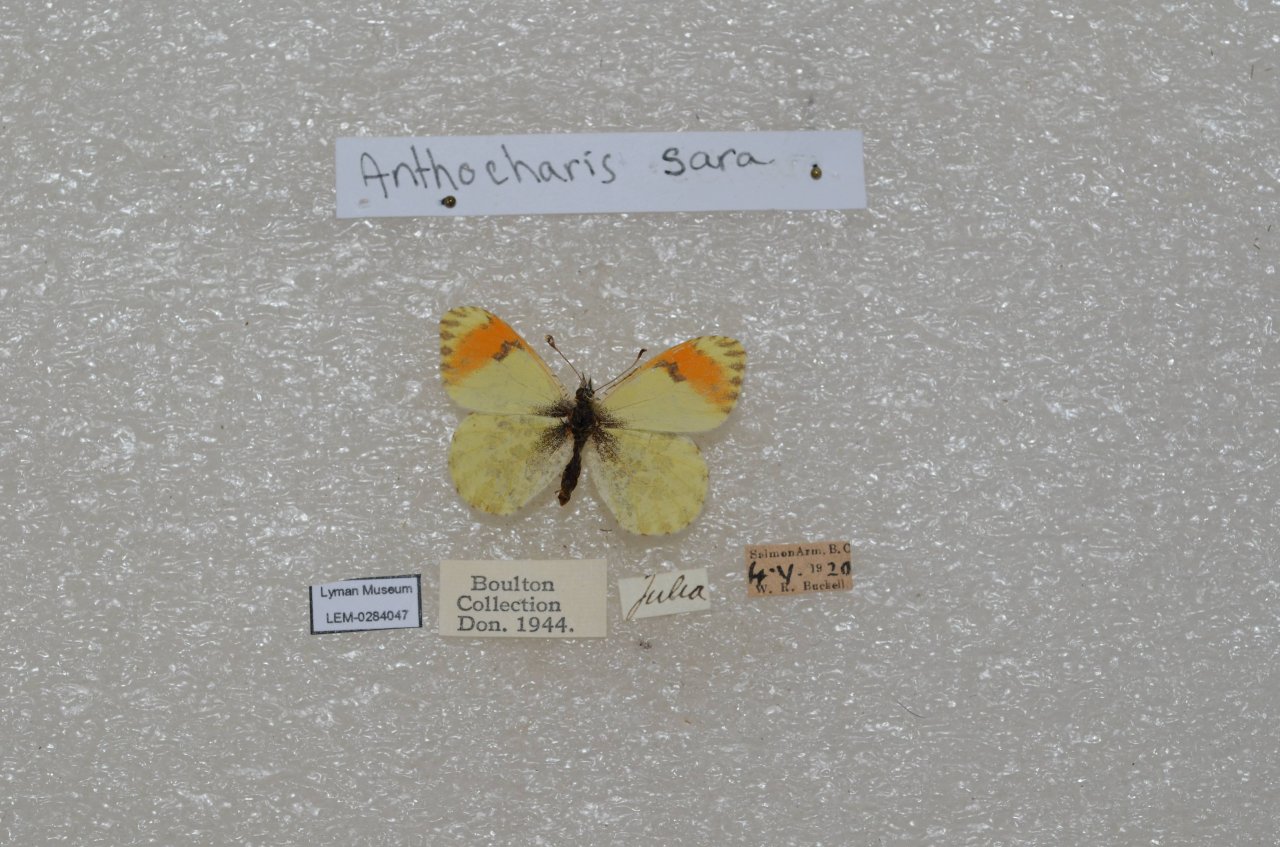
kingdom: Animalia
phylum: Arthropoda
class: Insecta
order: Lepidoptera
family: Pieridae
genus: Anthocharis
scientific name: Anthocharis sara
